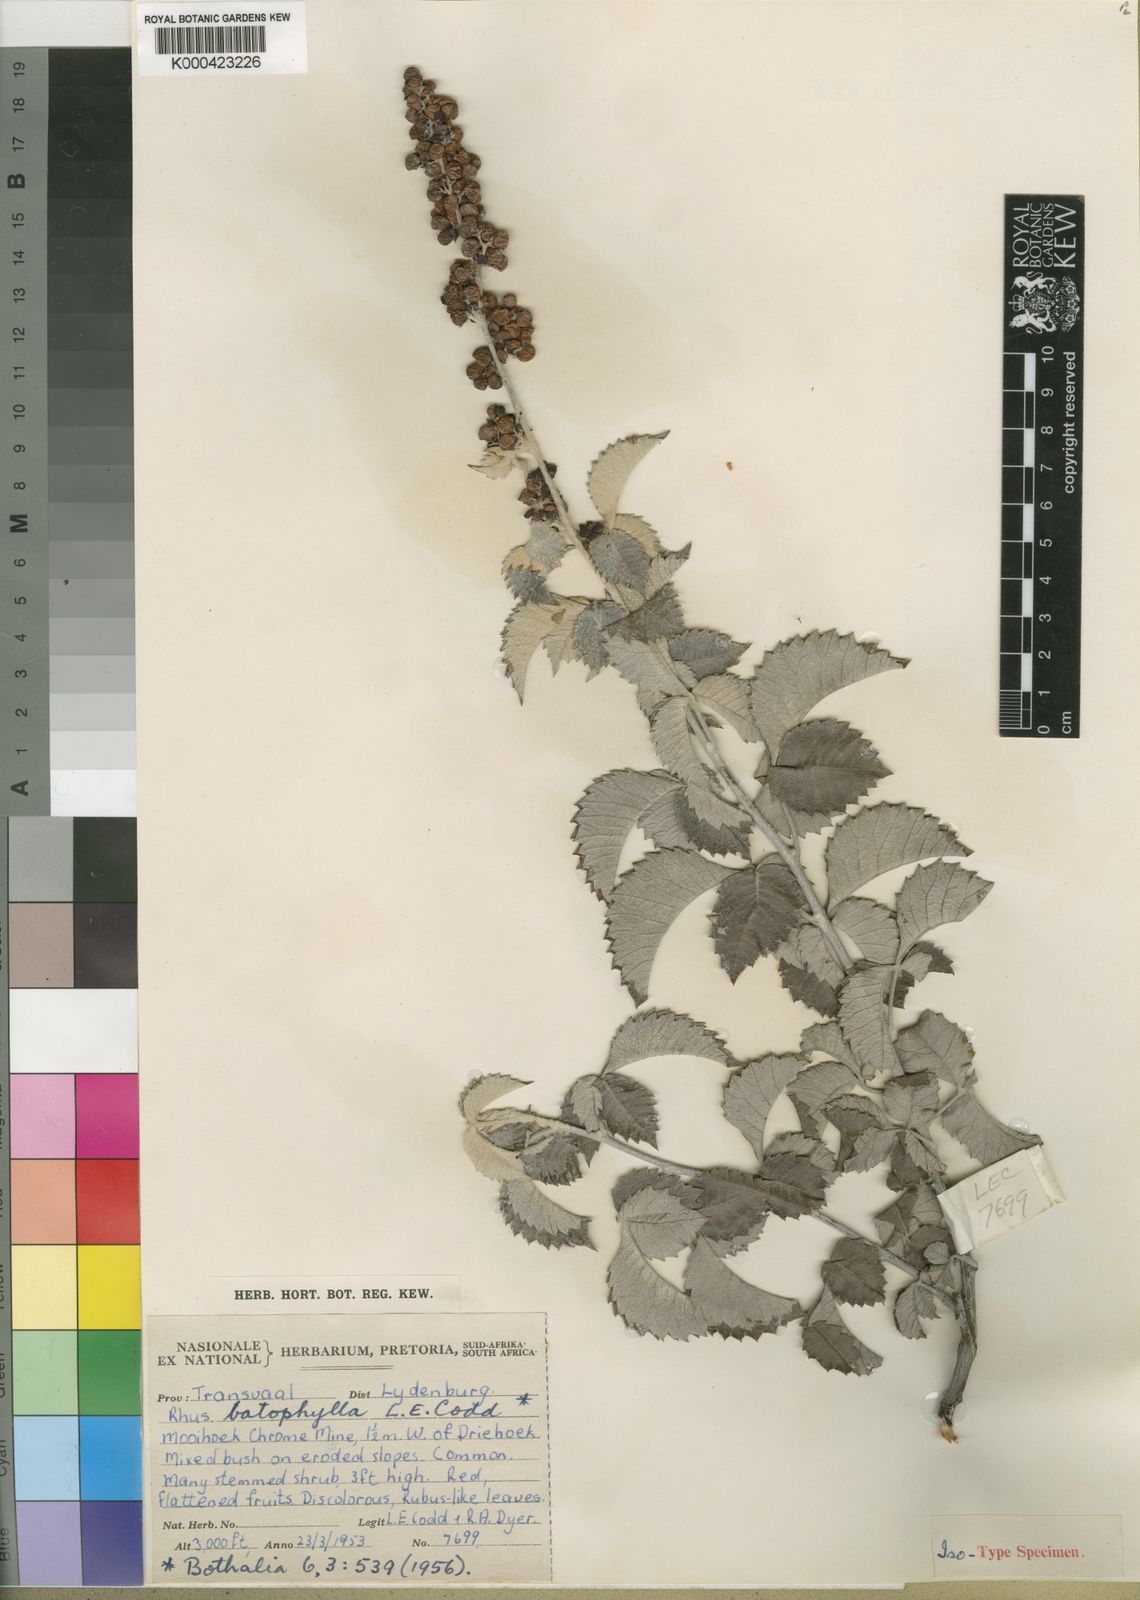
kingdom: Plantae
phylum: Tracheophyta
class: Magnoliopsida
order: Sapindales
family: Anacardiaceae
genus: Searsia
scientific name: Searsia batophylla
